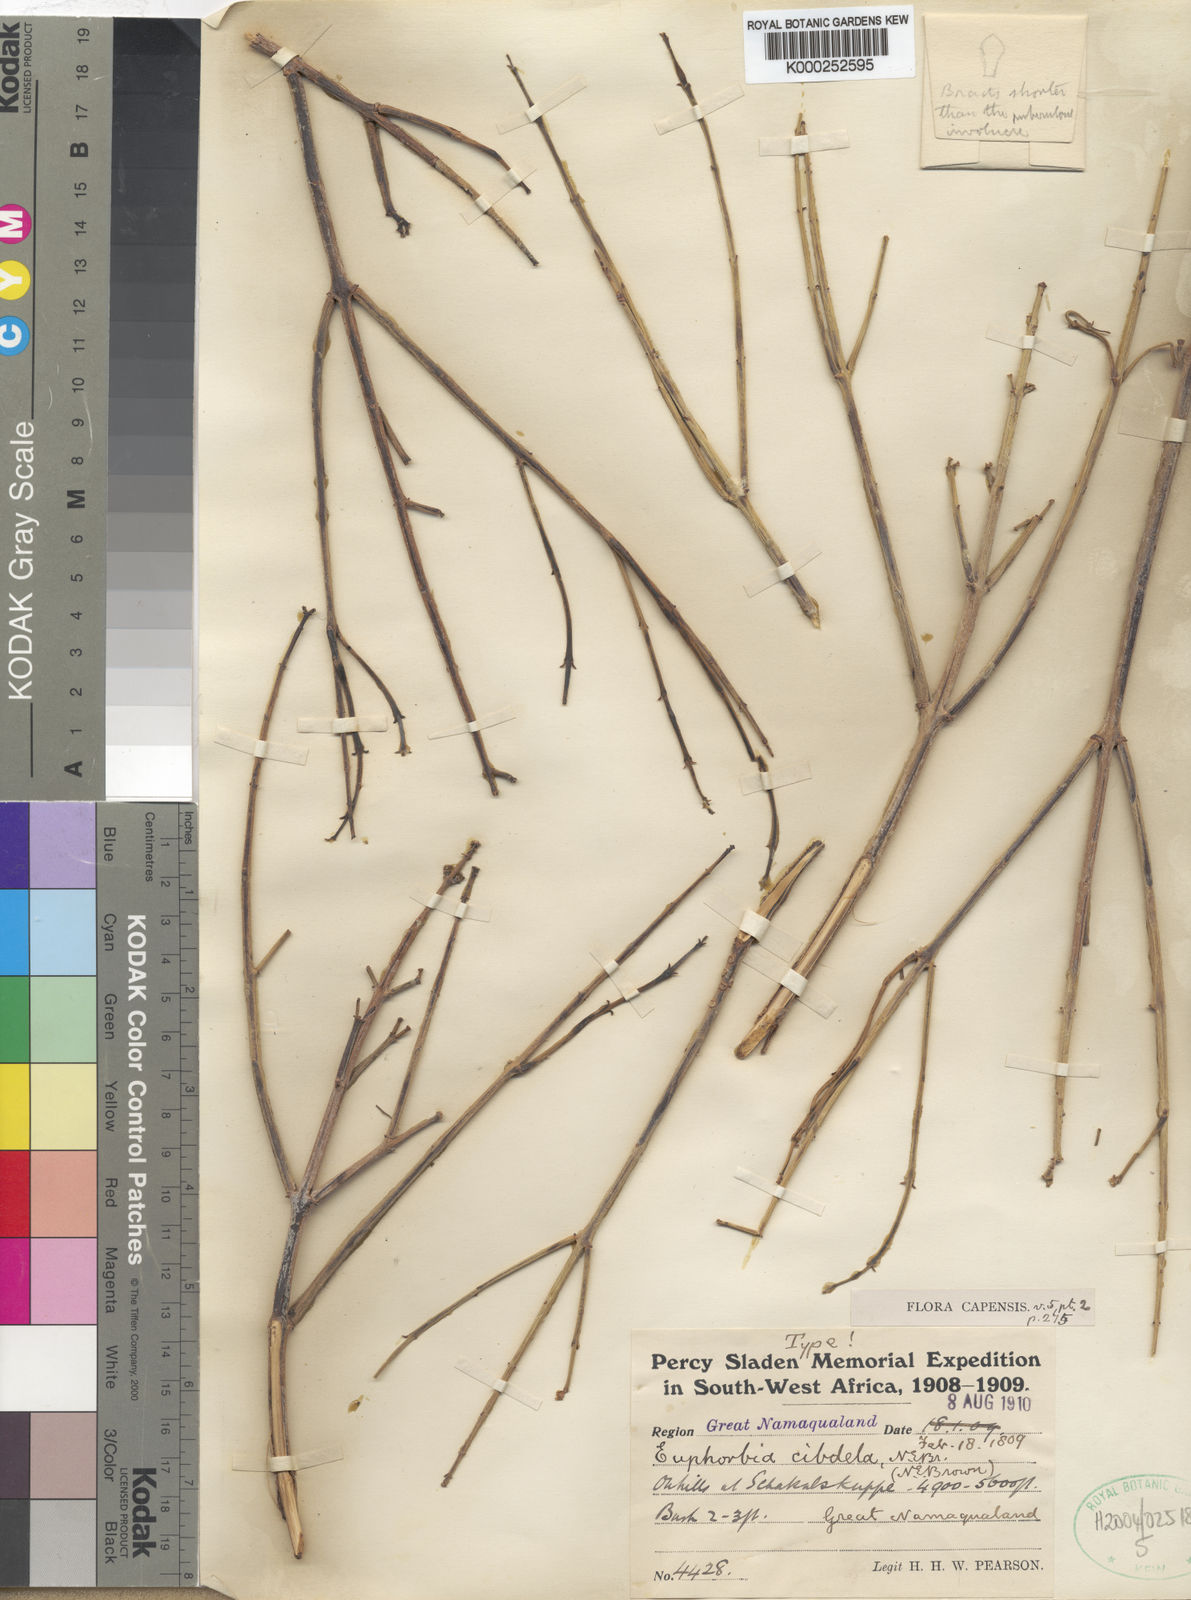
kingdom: Plantae
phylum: Tracheophyta
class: Magnoliopsida
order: Malpighiales
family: Euphorbiaceae
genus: Euphorbia
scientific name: Euphorbia spartaria
